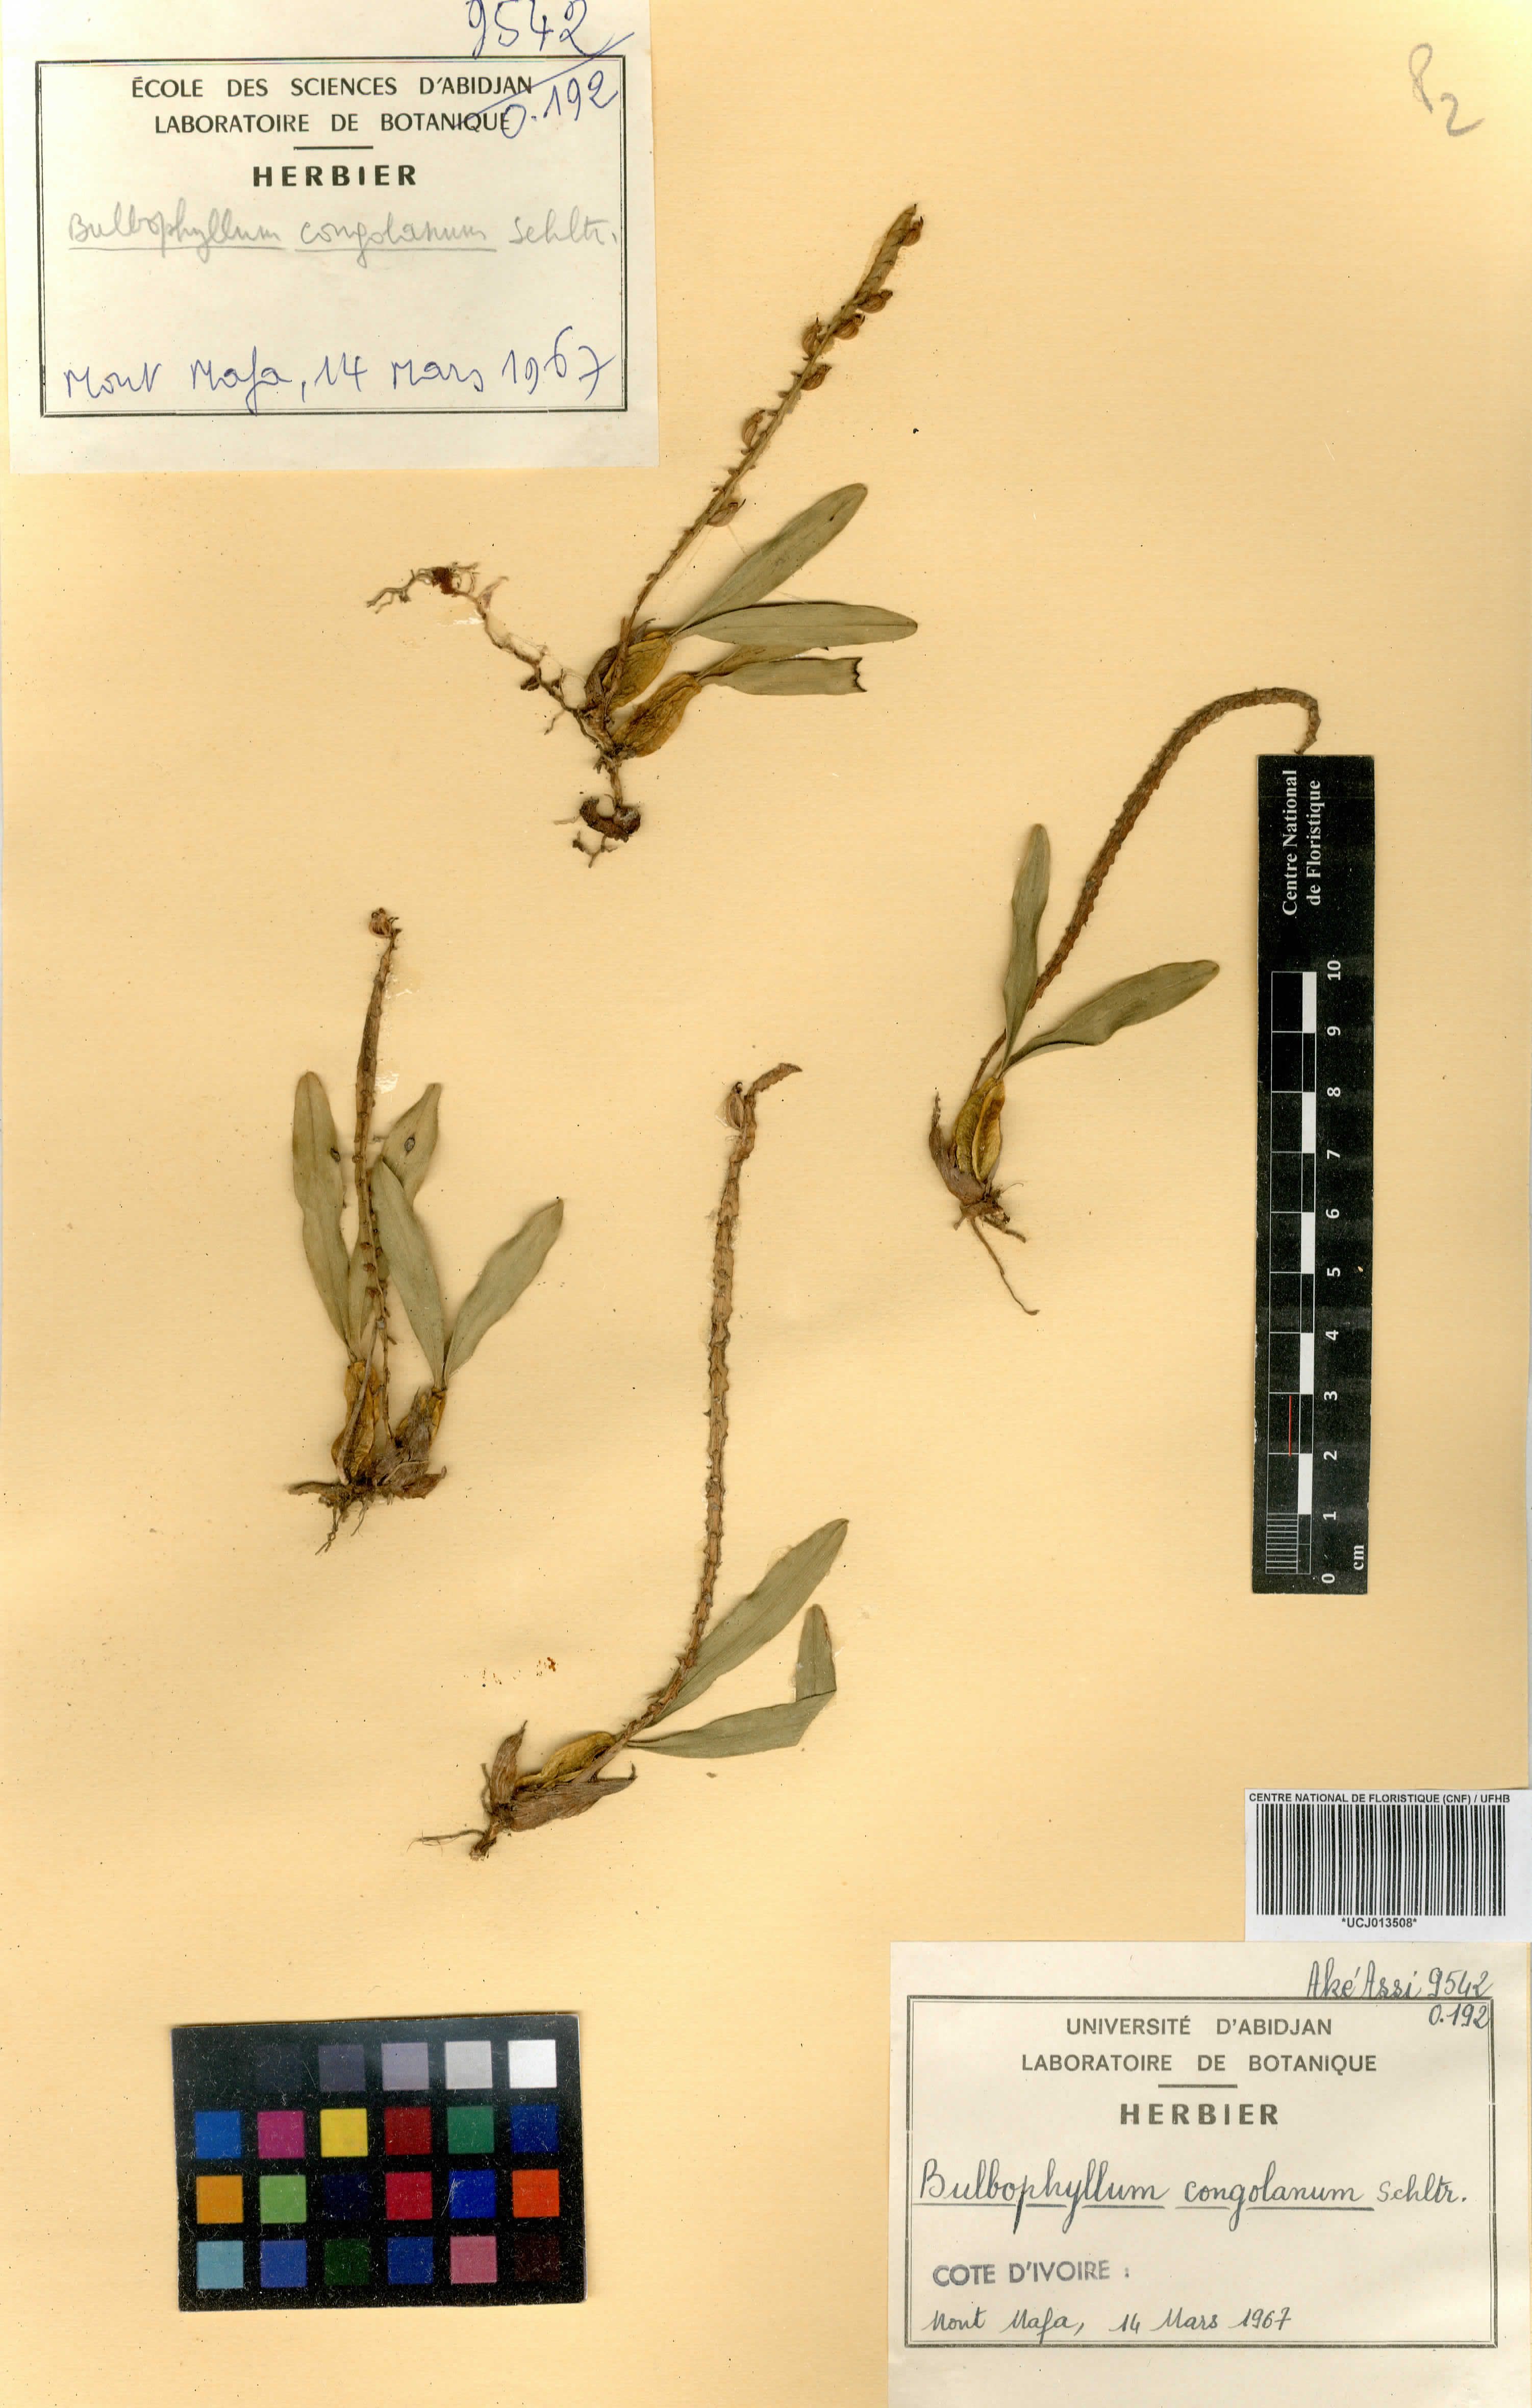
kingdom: Plantae
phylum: Tracheophyta
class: Liliopsida
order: Asparagales
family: Orchidaceae
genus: Bulbophyllum
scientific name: Bulbophyllum scaberulum
